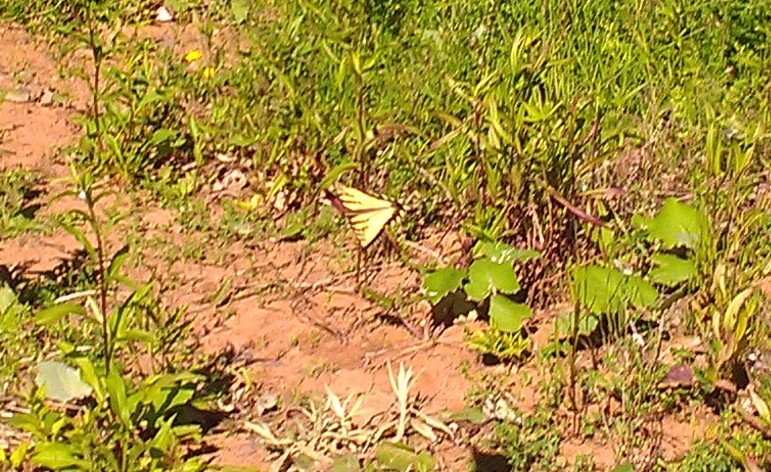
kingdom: Animalia
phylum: Arthropoda
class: Insecta
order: Lepidoptera
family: Papilionidae
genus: Pterourus
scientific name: Pterourus canadensis
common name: Canadian Tiger Swallowtail
